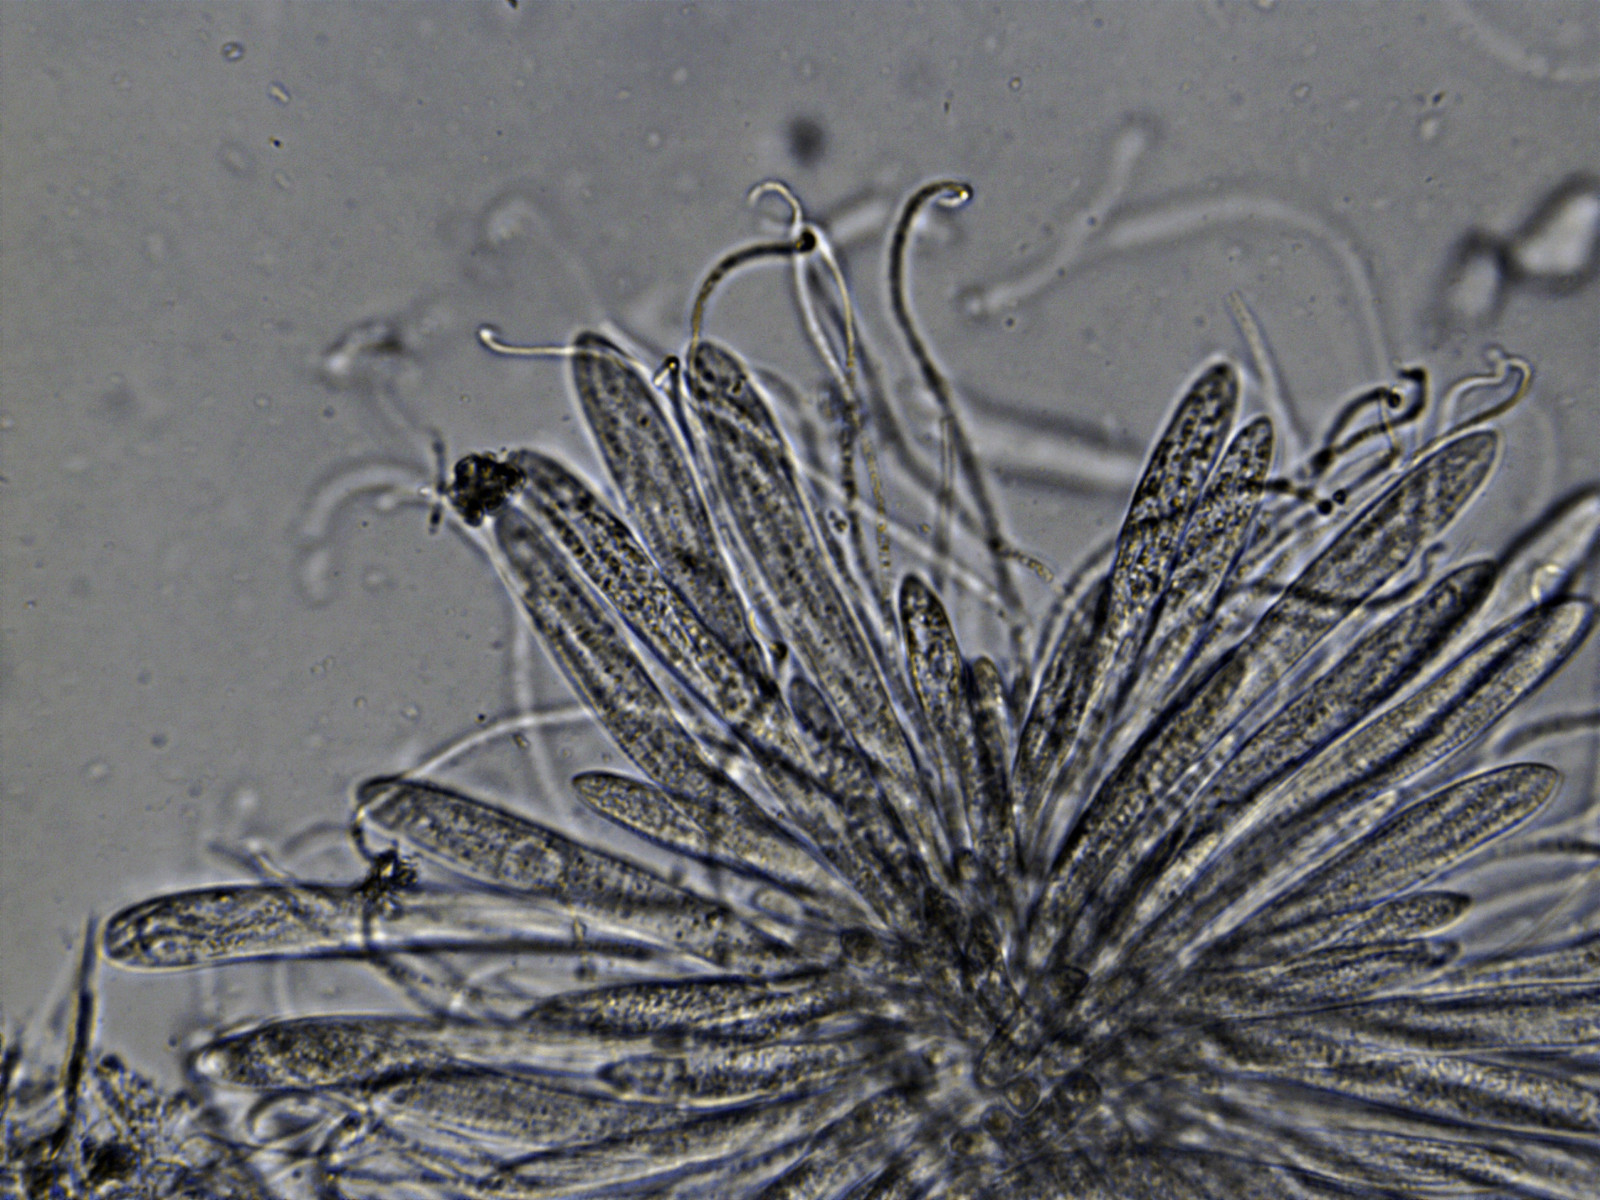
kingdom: Fungi
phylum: Ascomycota
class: Leotiomycetes
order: Rhytismatales
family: Rhytismataceae
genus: Lophodermium
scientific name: Lophodermium arundinaceum
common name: almindelig fureplet
